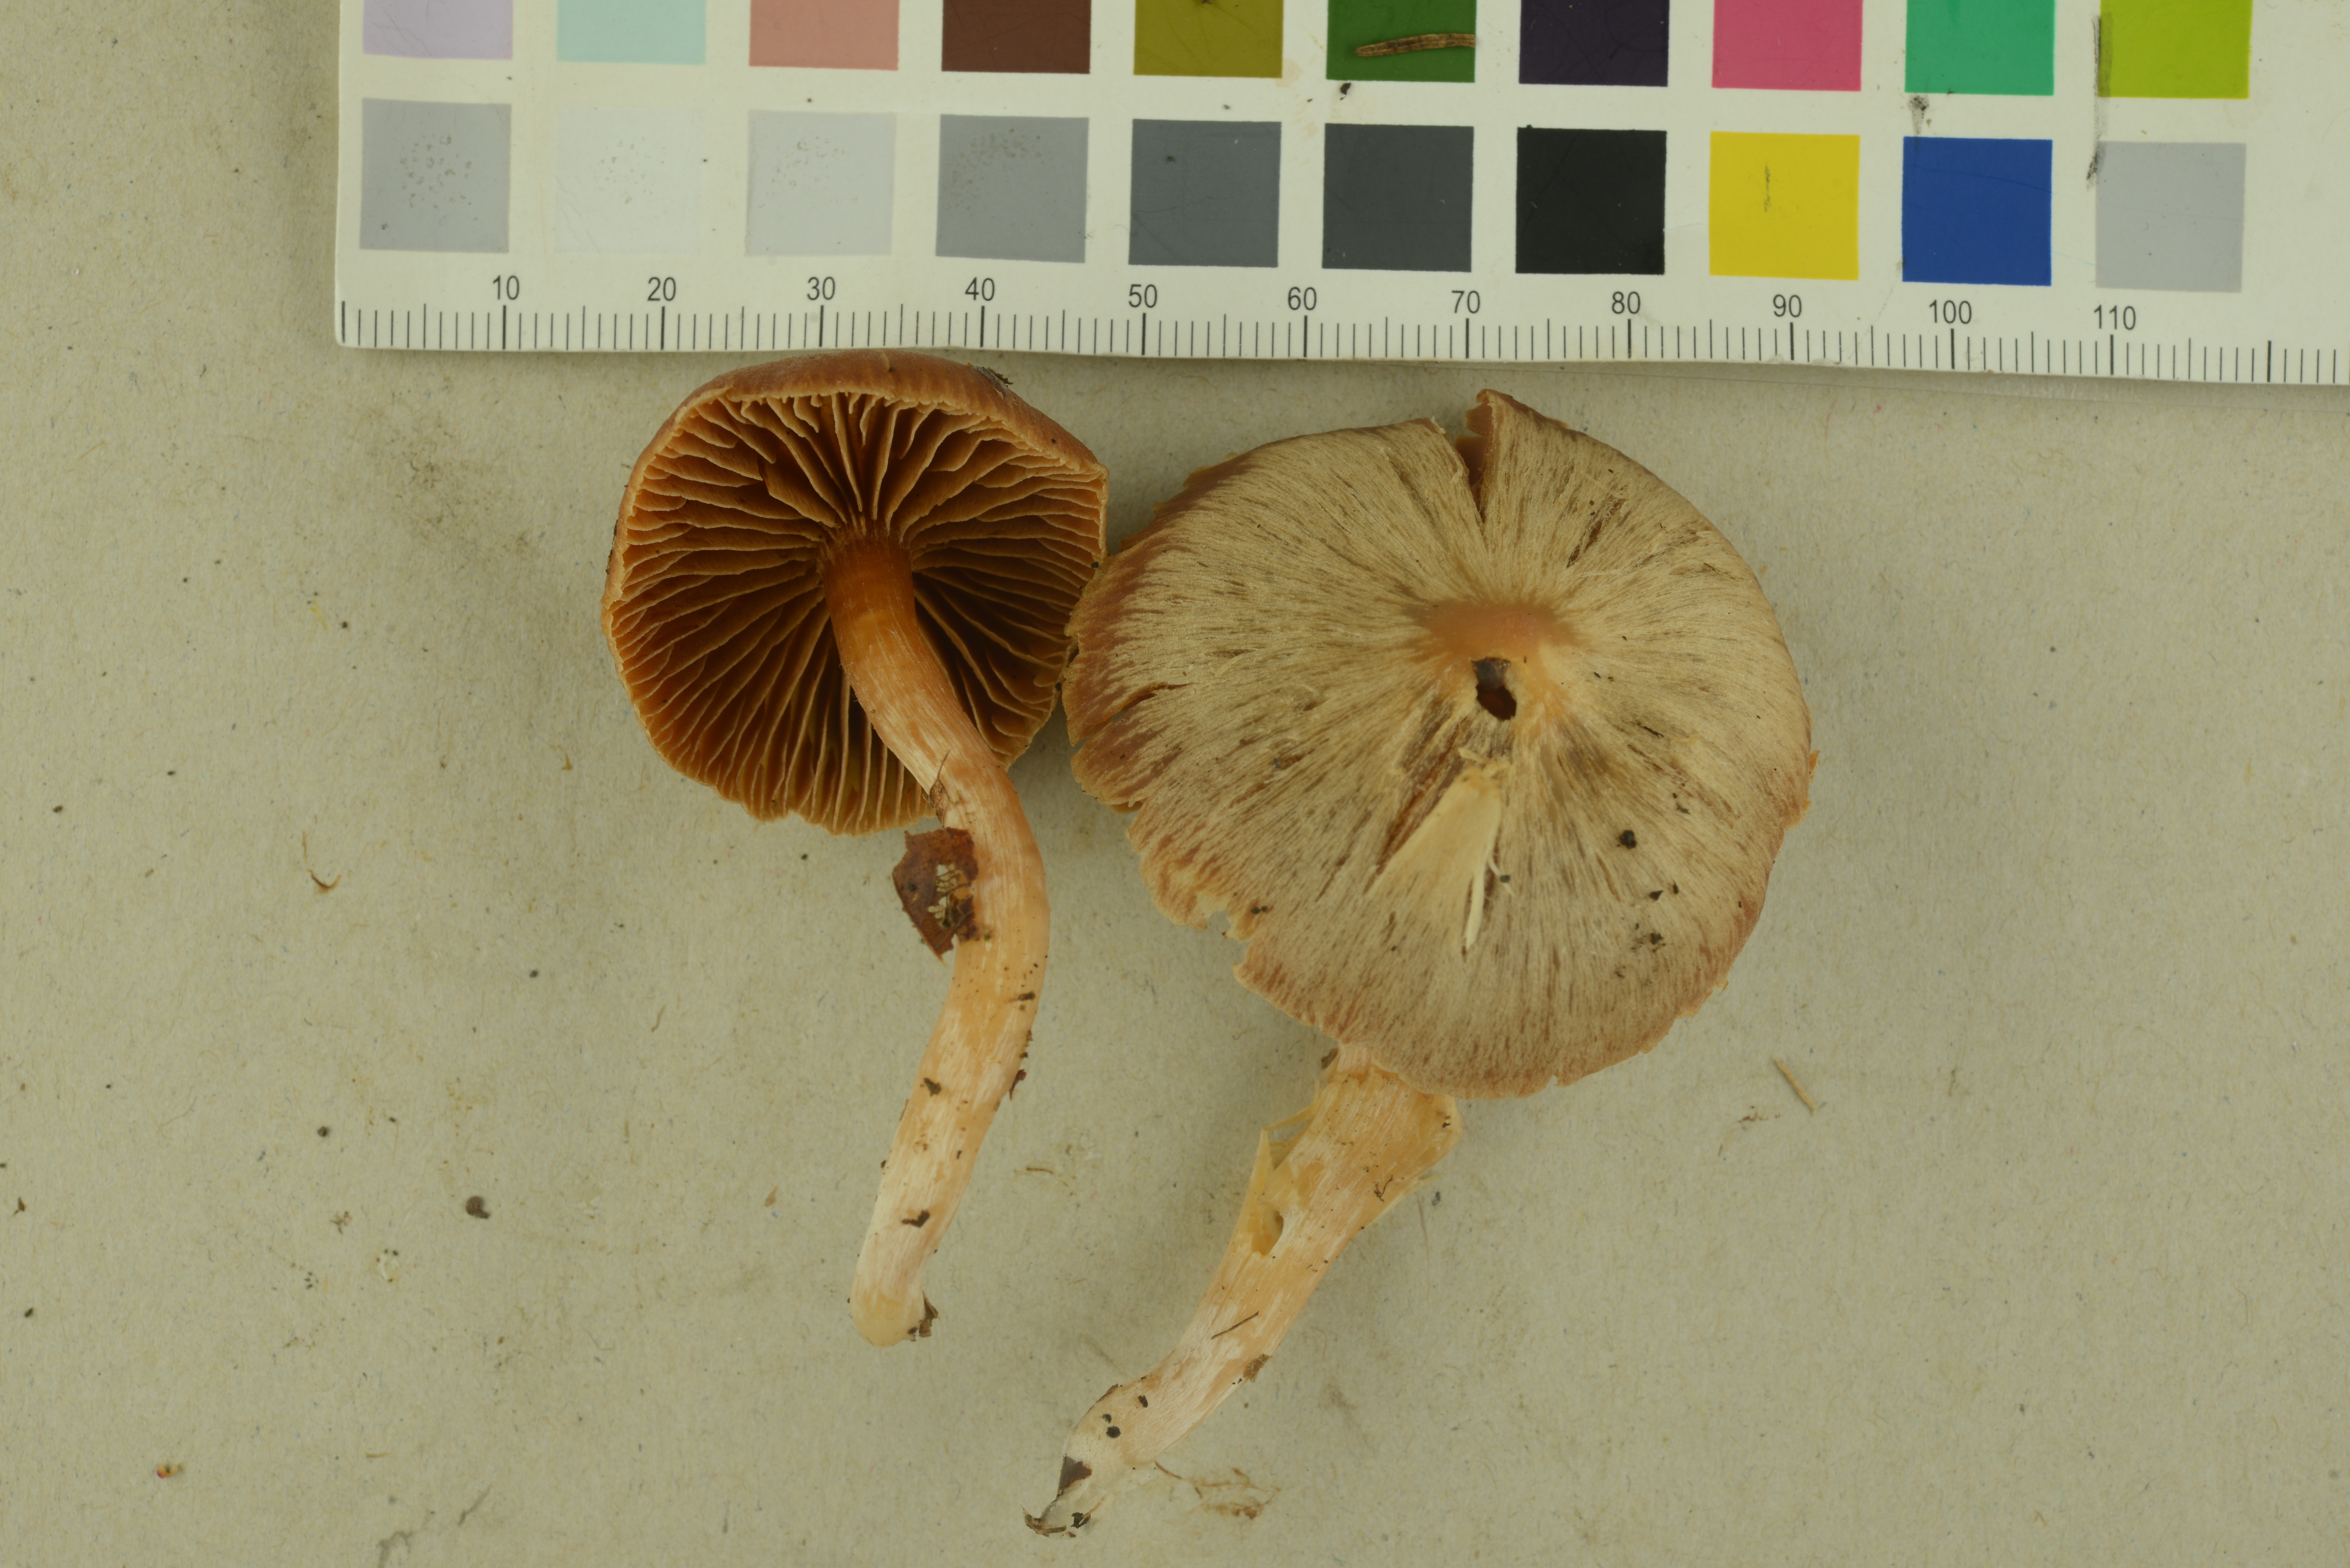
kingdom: Fungi
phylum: Basidiomycota
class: Agaricomycetes
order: Agaricales
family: Cortinariaceae
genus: Cortinarius
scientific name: Cortinarius obtusus
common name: Blunt webcap
